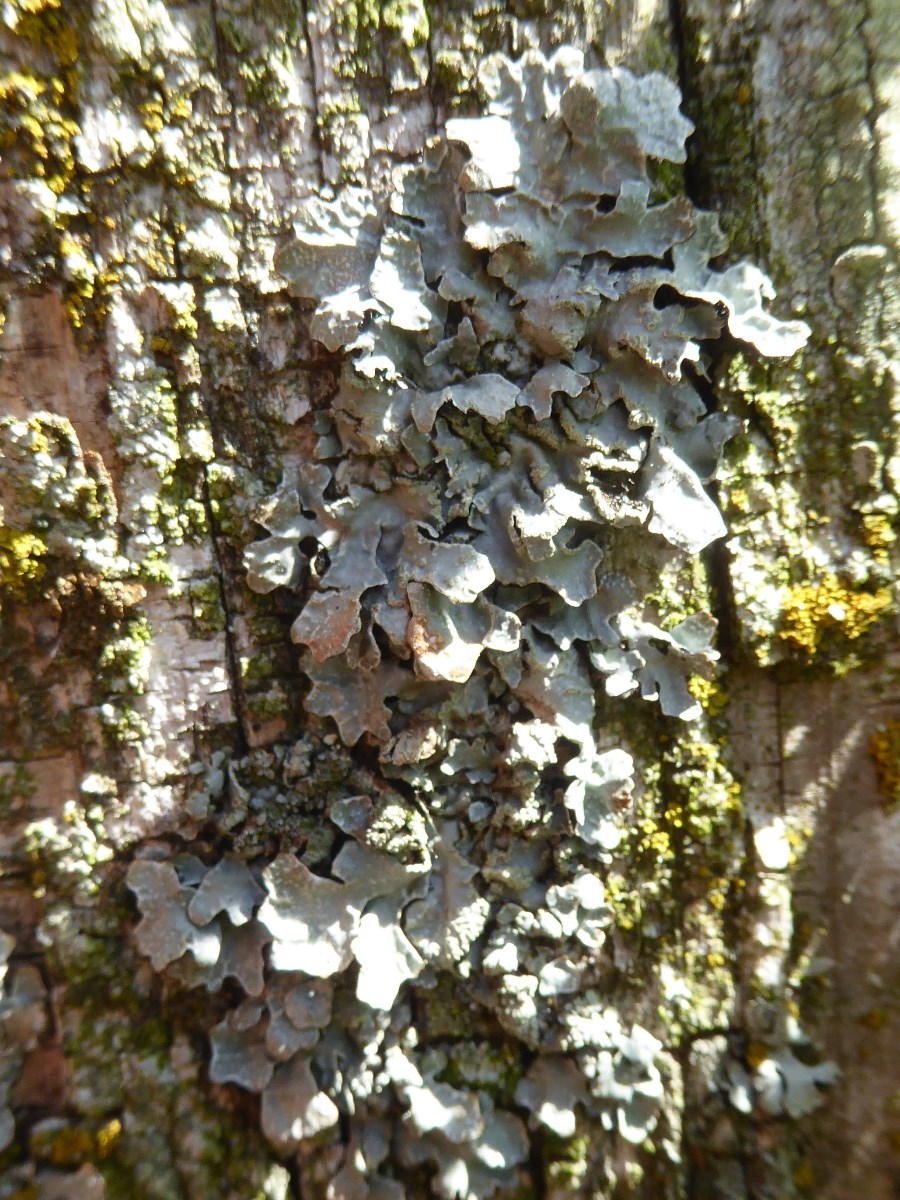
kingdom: Fungi
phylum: Ascomycota
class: Lecanoromycetes
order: Lecanorales
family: Parmeliaceae
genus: Parmelia
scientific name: Parmelia sulcata
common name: rynket skållav
